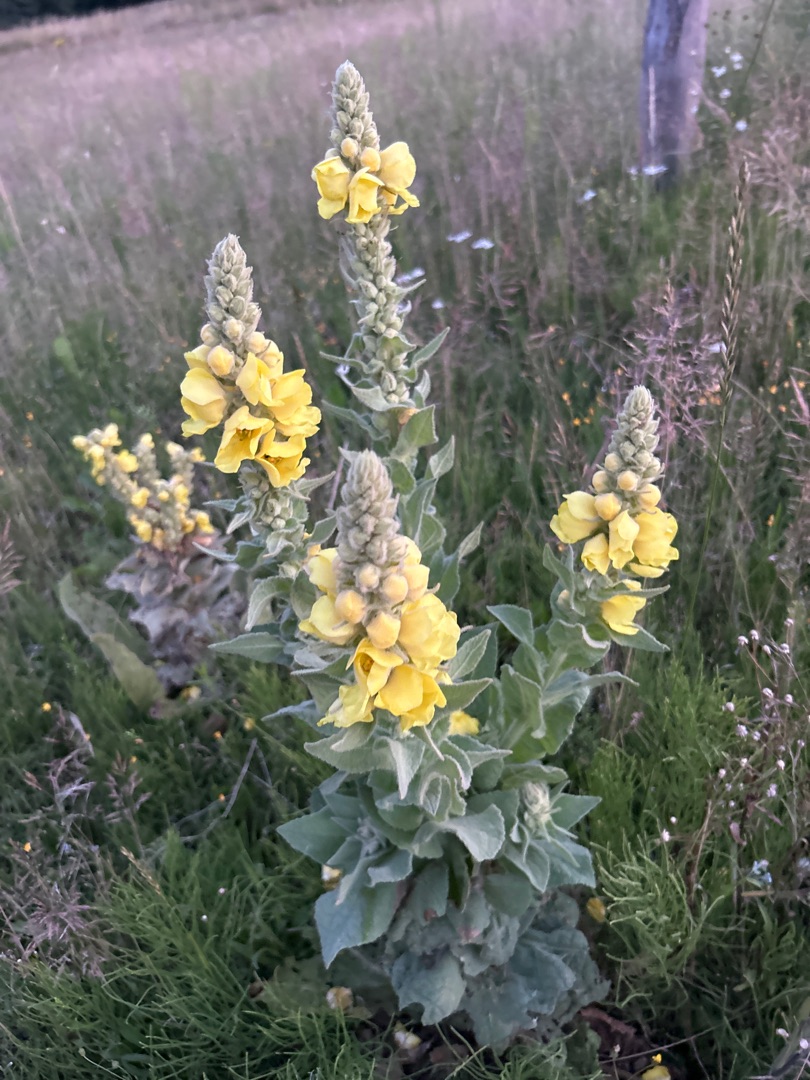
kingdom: Plantae
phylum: Tracheophyta
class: Magnoliopsida
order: Lamiales
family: Scrophulariaceae
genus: Verbascum
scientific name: Verbascum densiflorum
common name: Uldbladet kongelys
